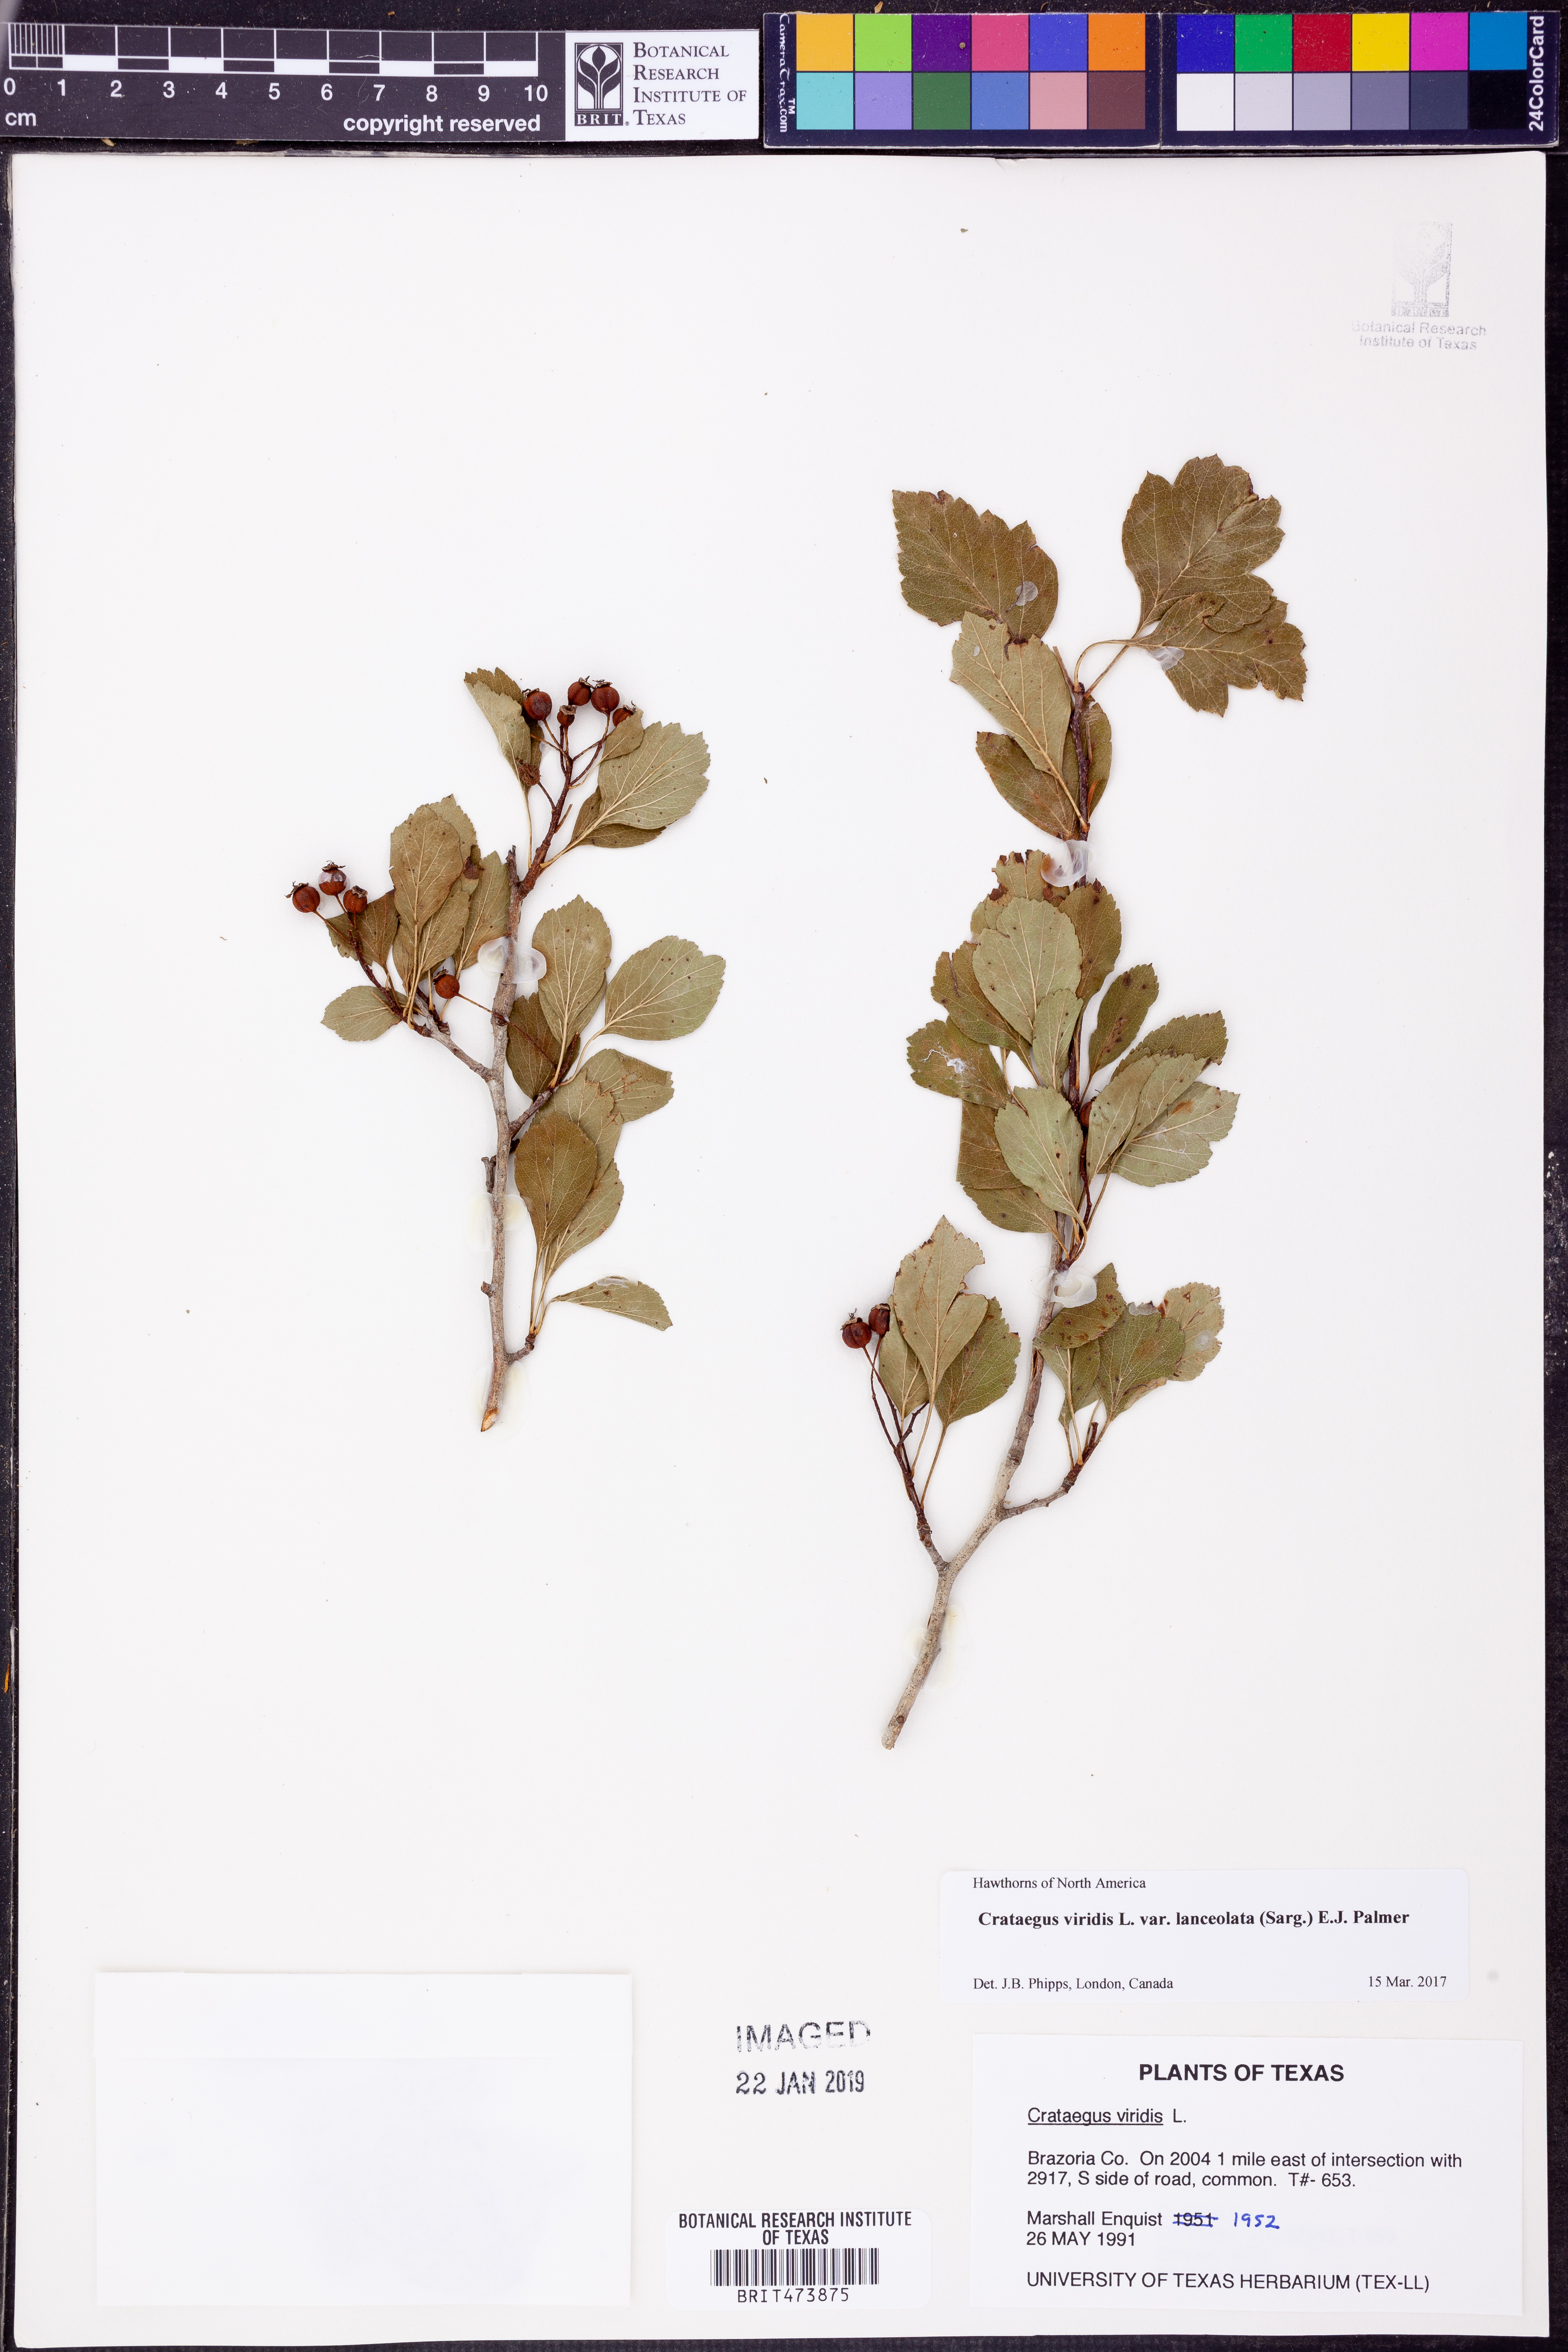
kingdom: Plantae
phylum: Tracheophyta
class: Magnoliopsida
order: Rosales
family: Rosaceae
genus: Crataegus
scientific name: Crataegus viridis
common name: Southernthorn
